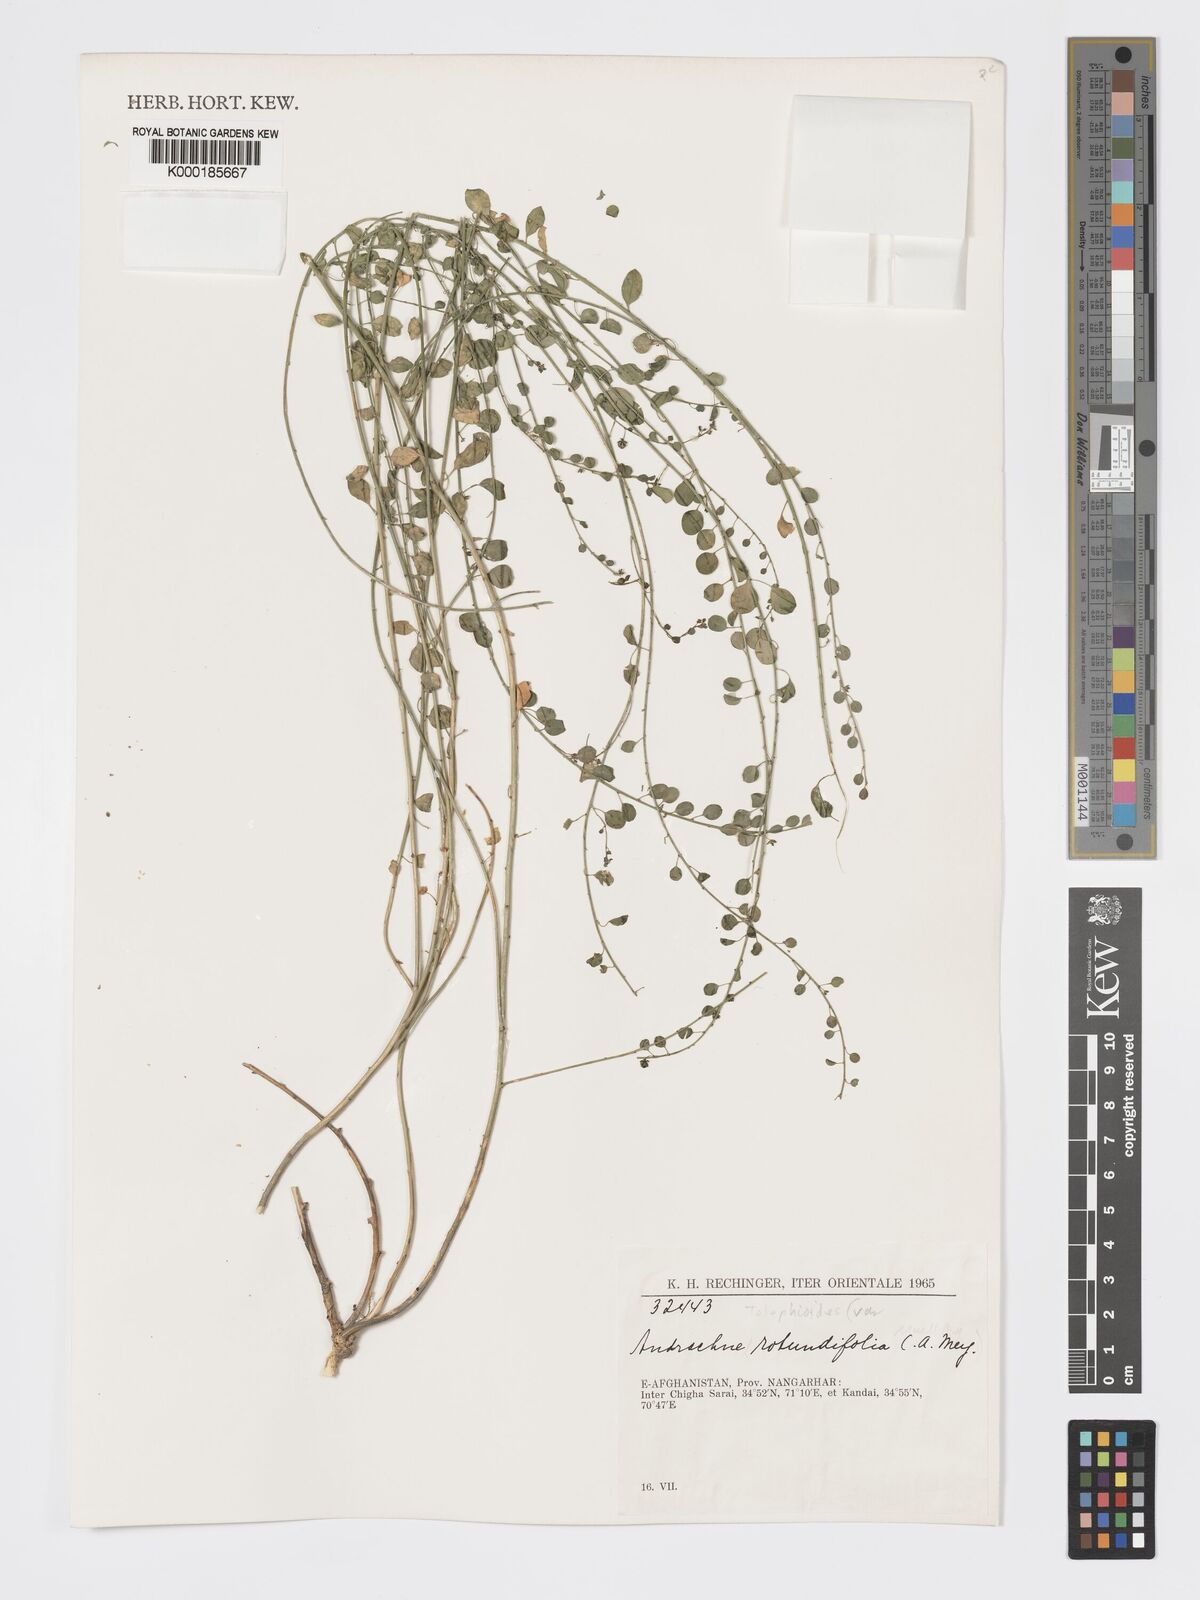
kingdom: Plantae
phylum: Tracheophyta
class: Magnoliopsida
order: Malpighiales
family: Phyllanthaceae
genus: Andrachne
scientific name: Andrachne telephioides
